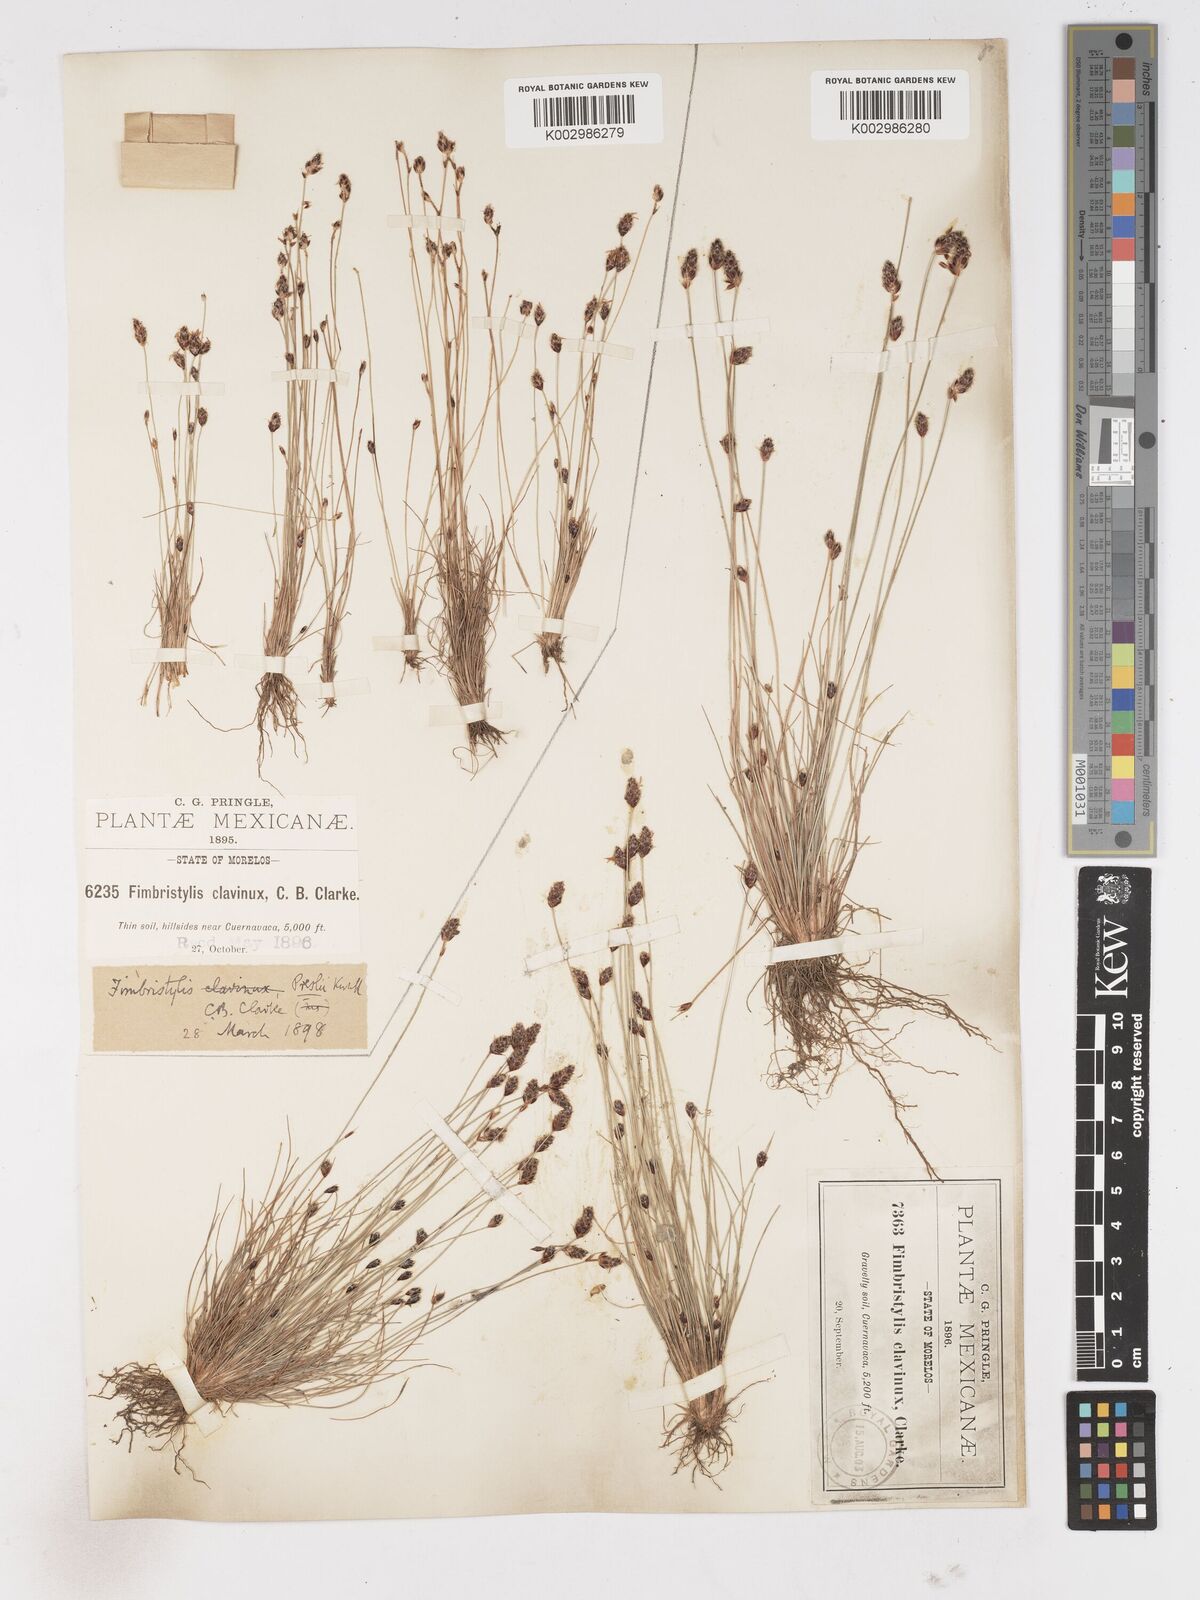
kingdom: Plantae
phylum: Tracheophyta
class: Liliopsida
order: Poales
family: Cyperaceae
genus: Bulbostylis
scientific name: Bulbostylis pubescens
